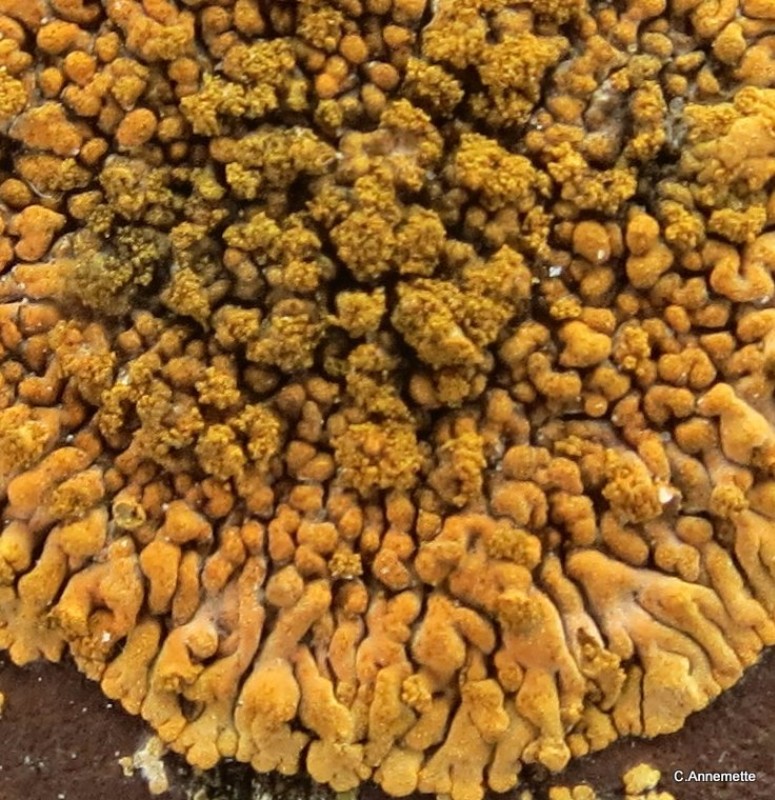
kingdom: Fungi
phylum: Ascomycota
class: Lecanoromycetes
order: Teloschistales
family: Teloschistaceae
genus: Calogaya
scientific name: Calogaya decipiens
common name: knudret orangelav
